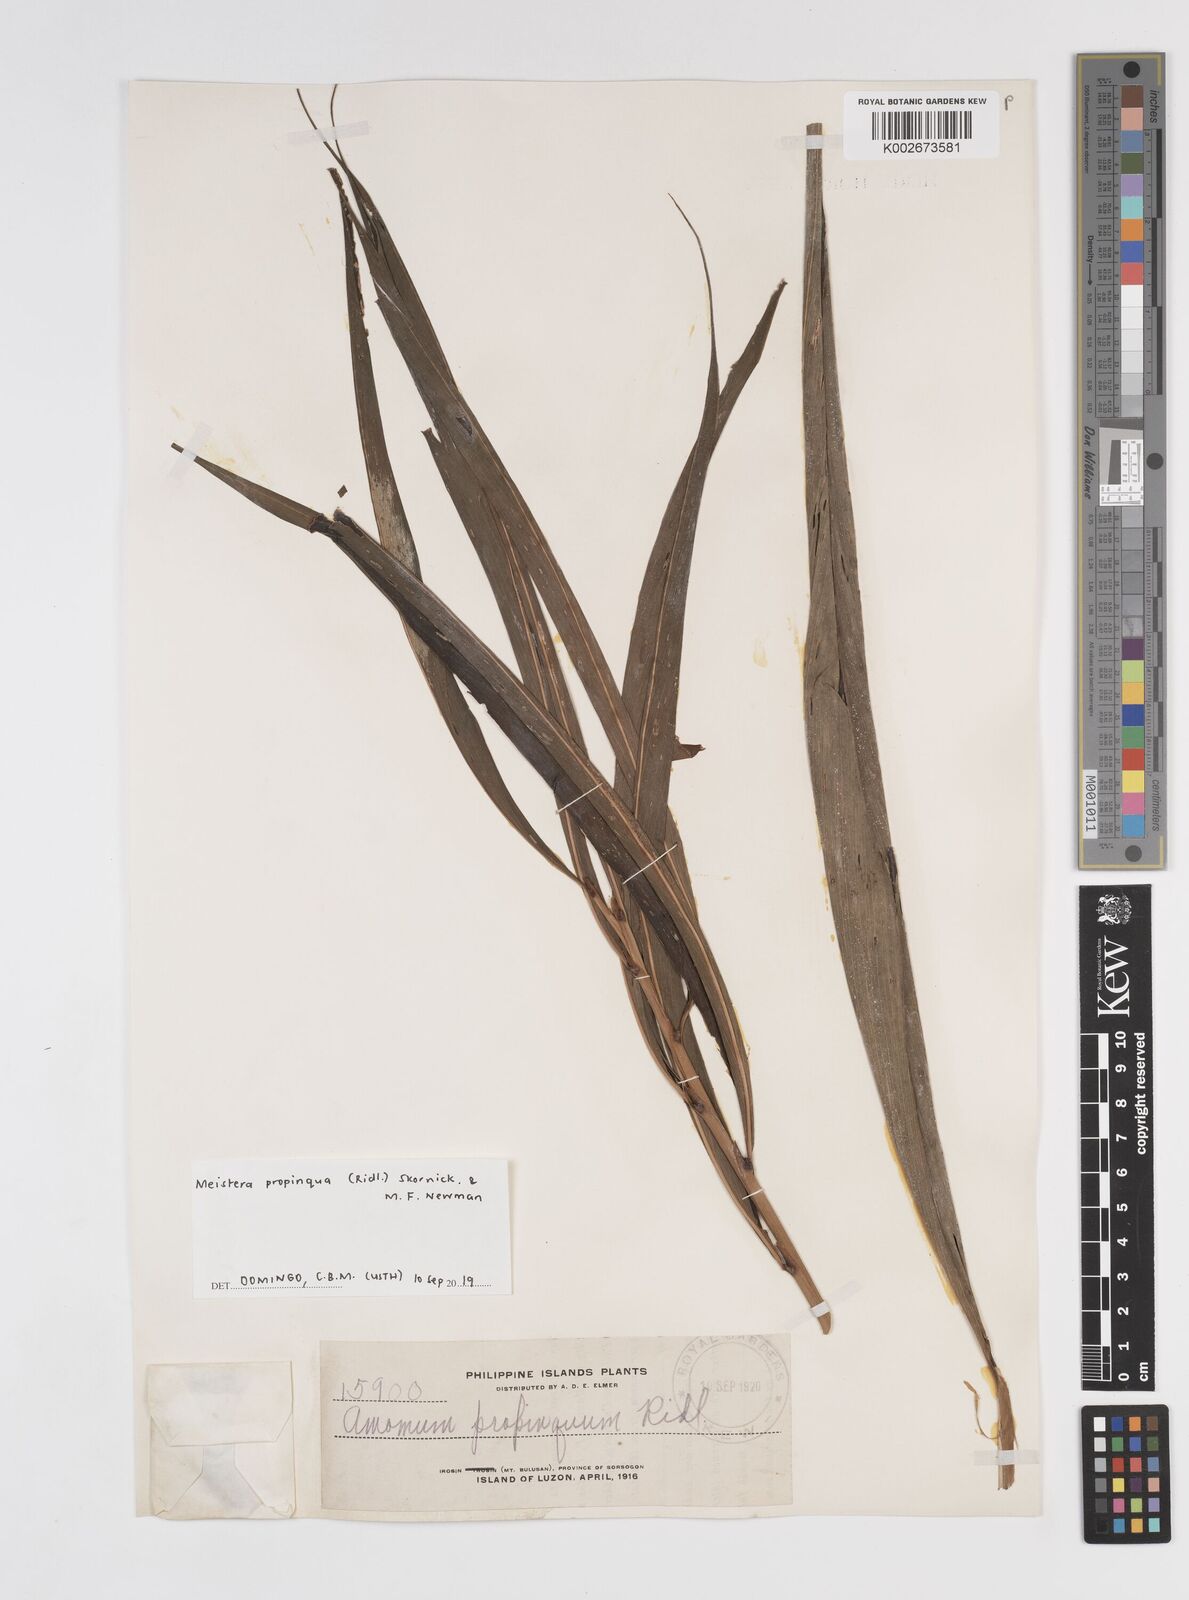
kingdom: Plantae
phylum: Tracheophyta
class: Liliopsida
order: Zingiberales
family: Zingiberaceae
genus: Meistera
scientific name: Meistera propinqua
